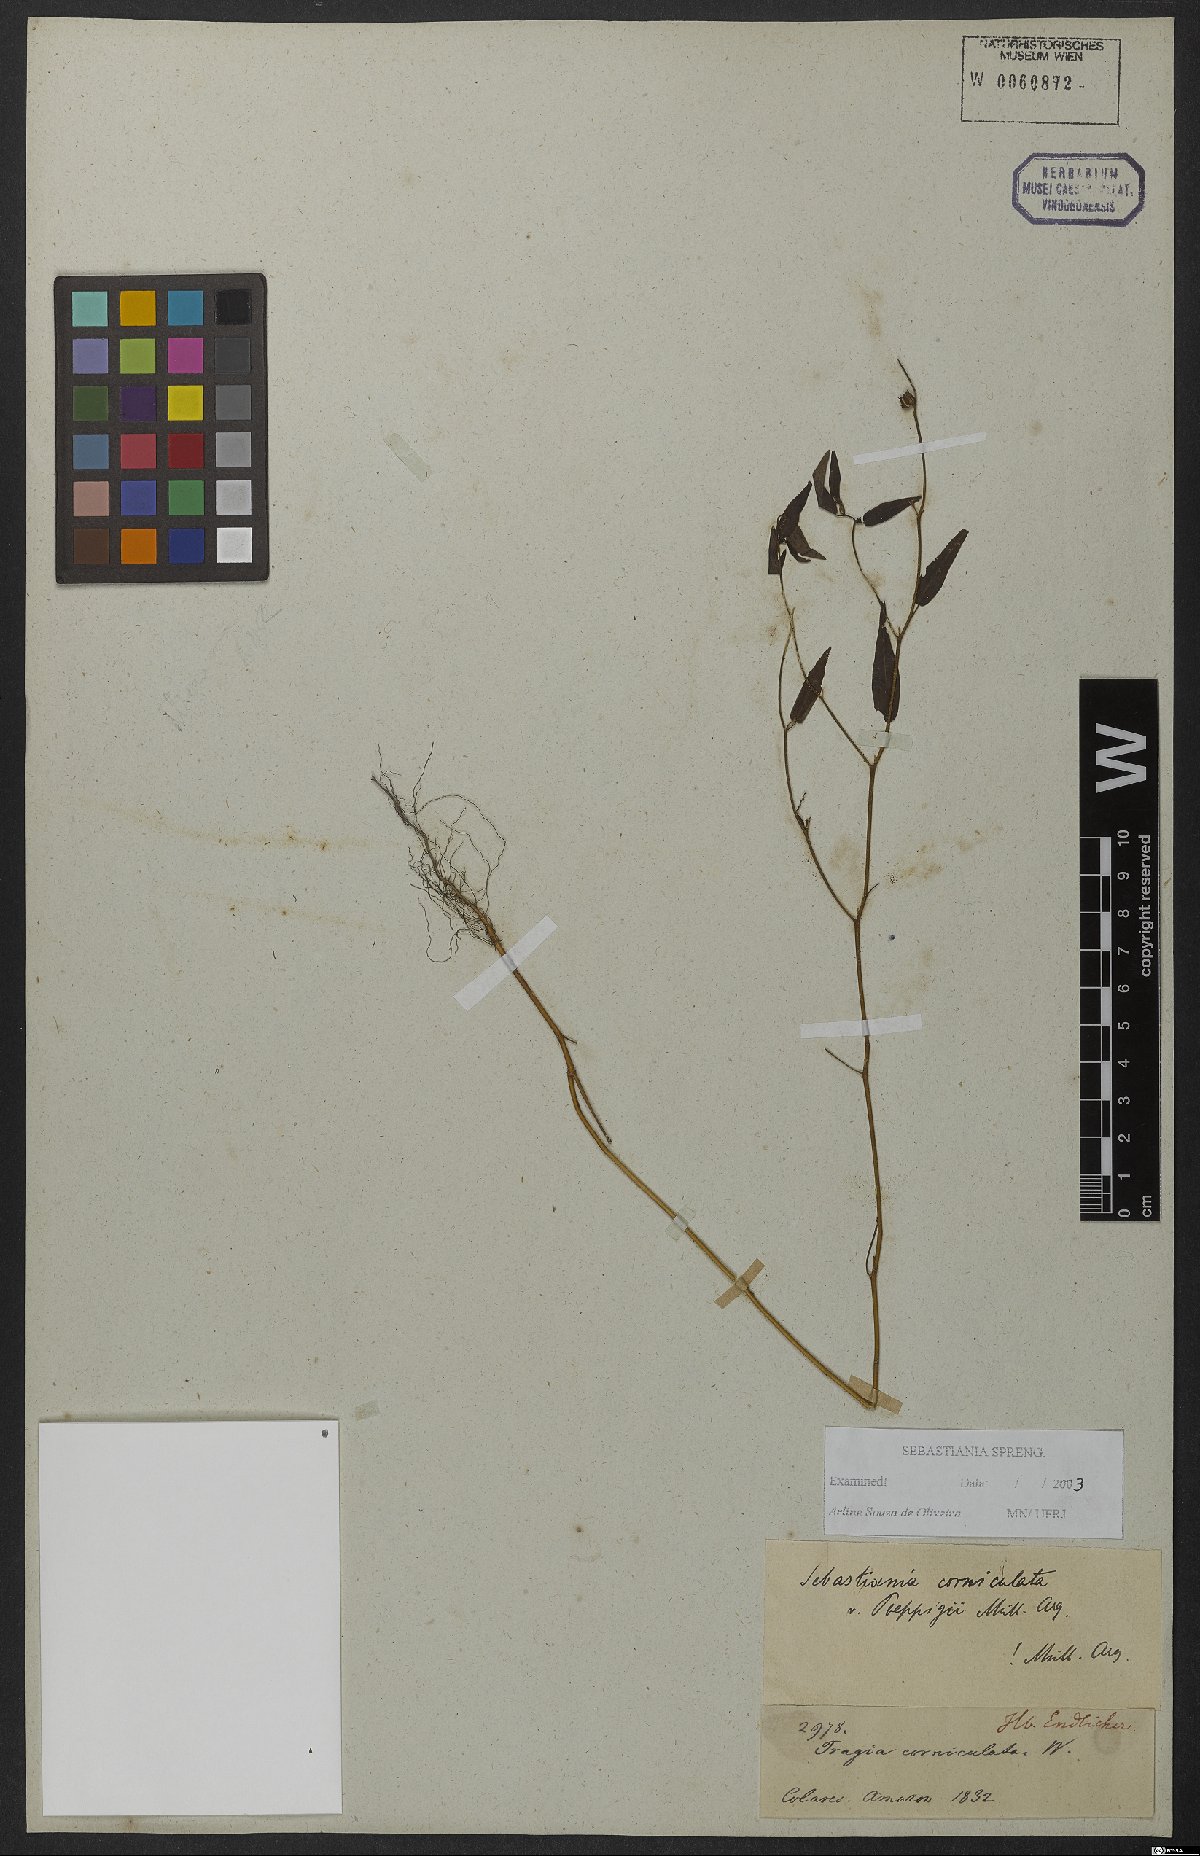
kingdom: Plantae
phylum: Tracheophyta
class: Magnoliopsida
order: Malpighiales
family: Euphorbiaceae
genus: Microstachys
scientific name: Microstachys corniculata
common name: Hato tejas
